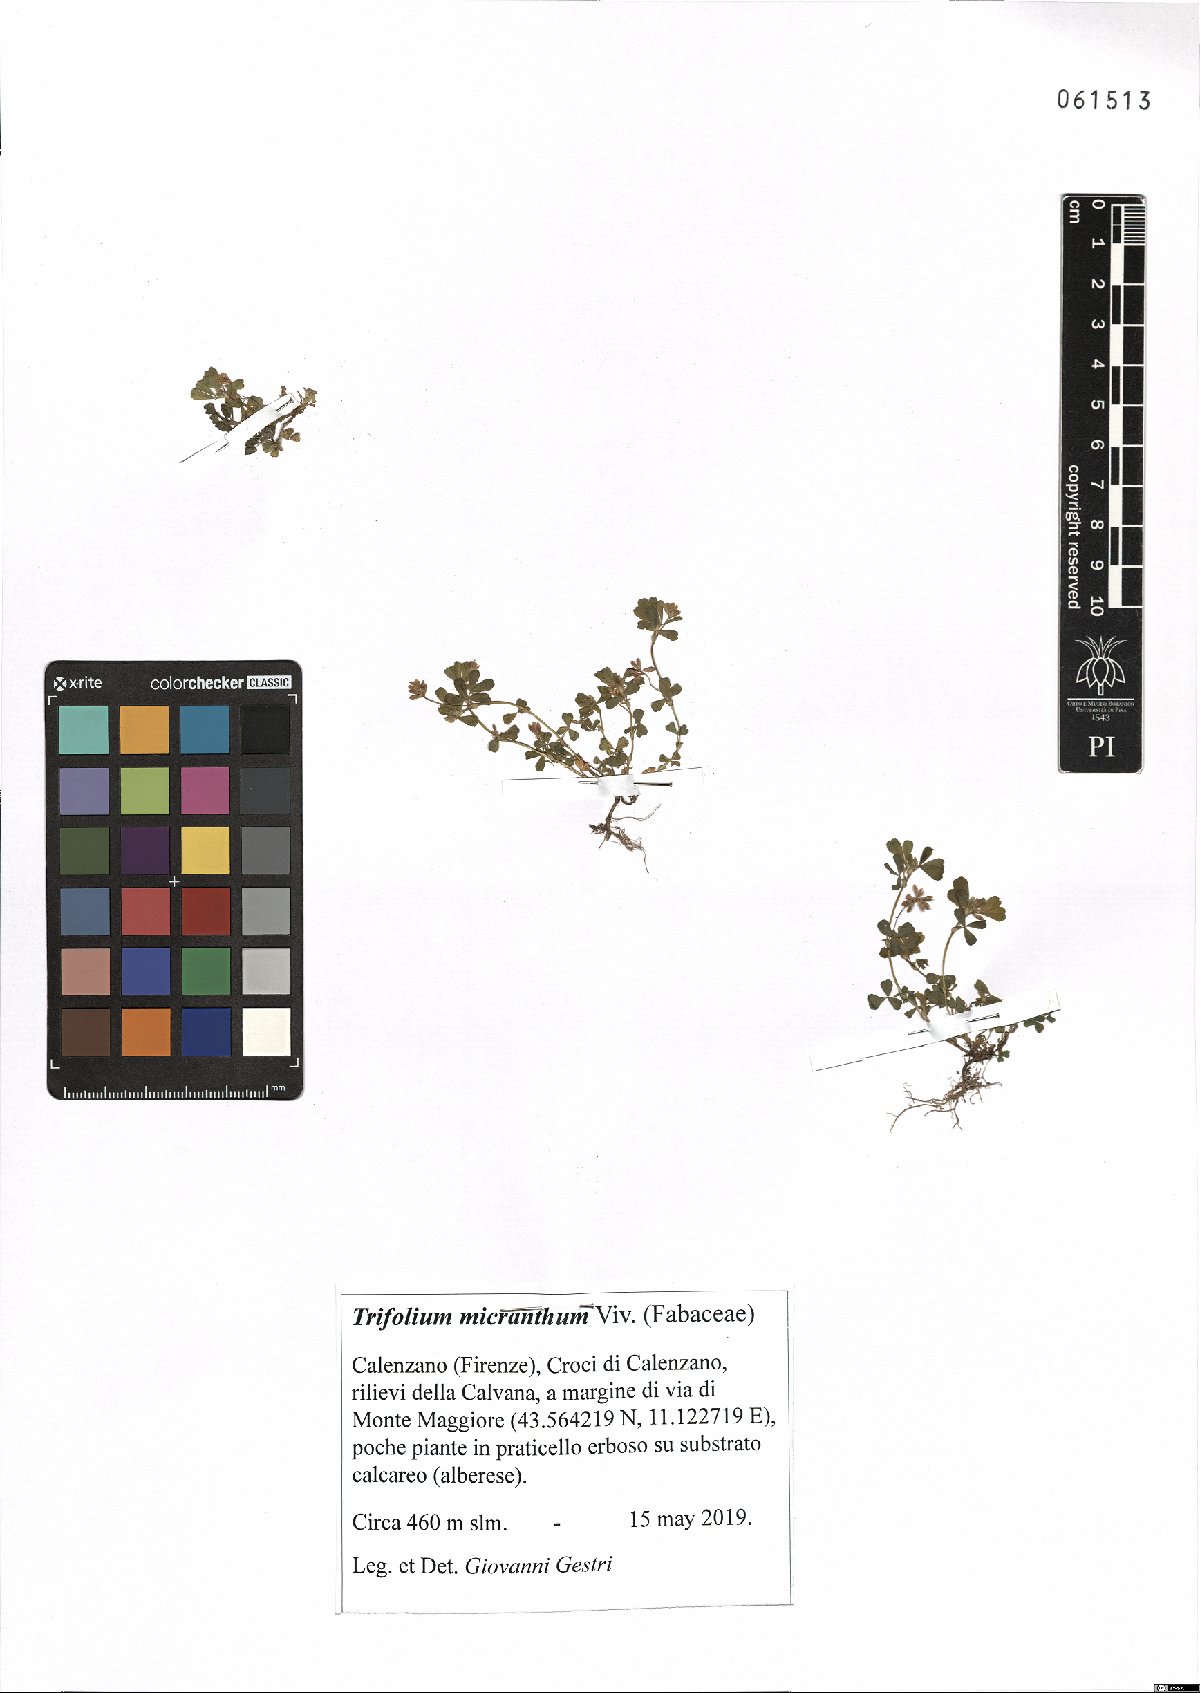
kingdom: Plantae
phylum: Tracheophyta
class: Magnoliopsida
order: Fabales
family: Fabaceae
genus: Trifolium
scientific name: Trifolium micranthum
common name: Slender trefoil
